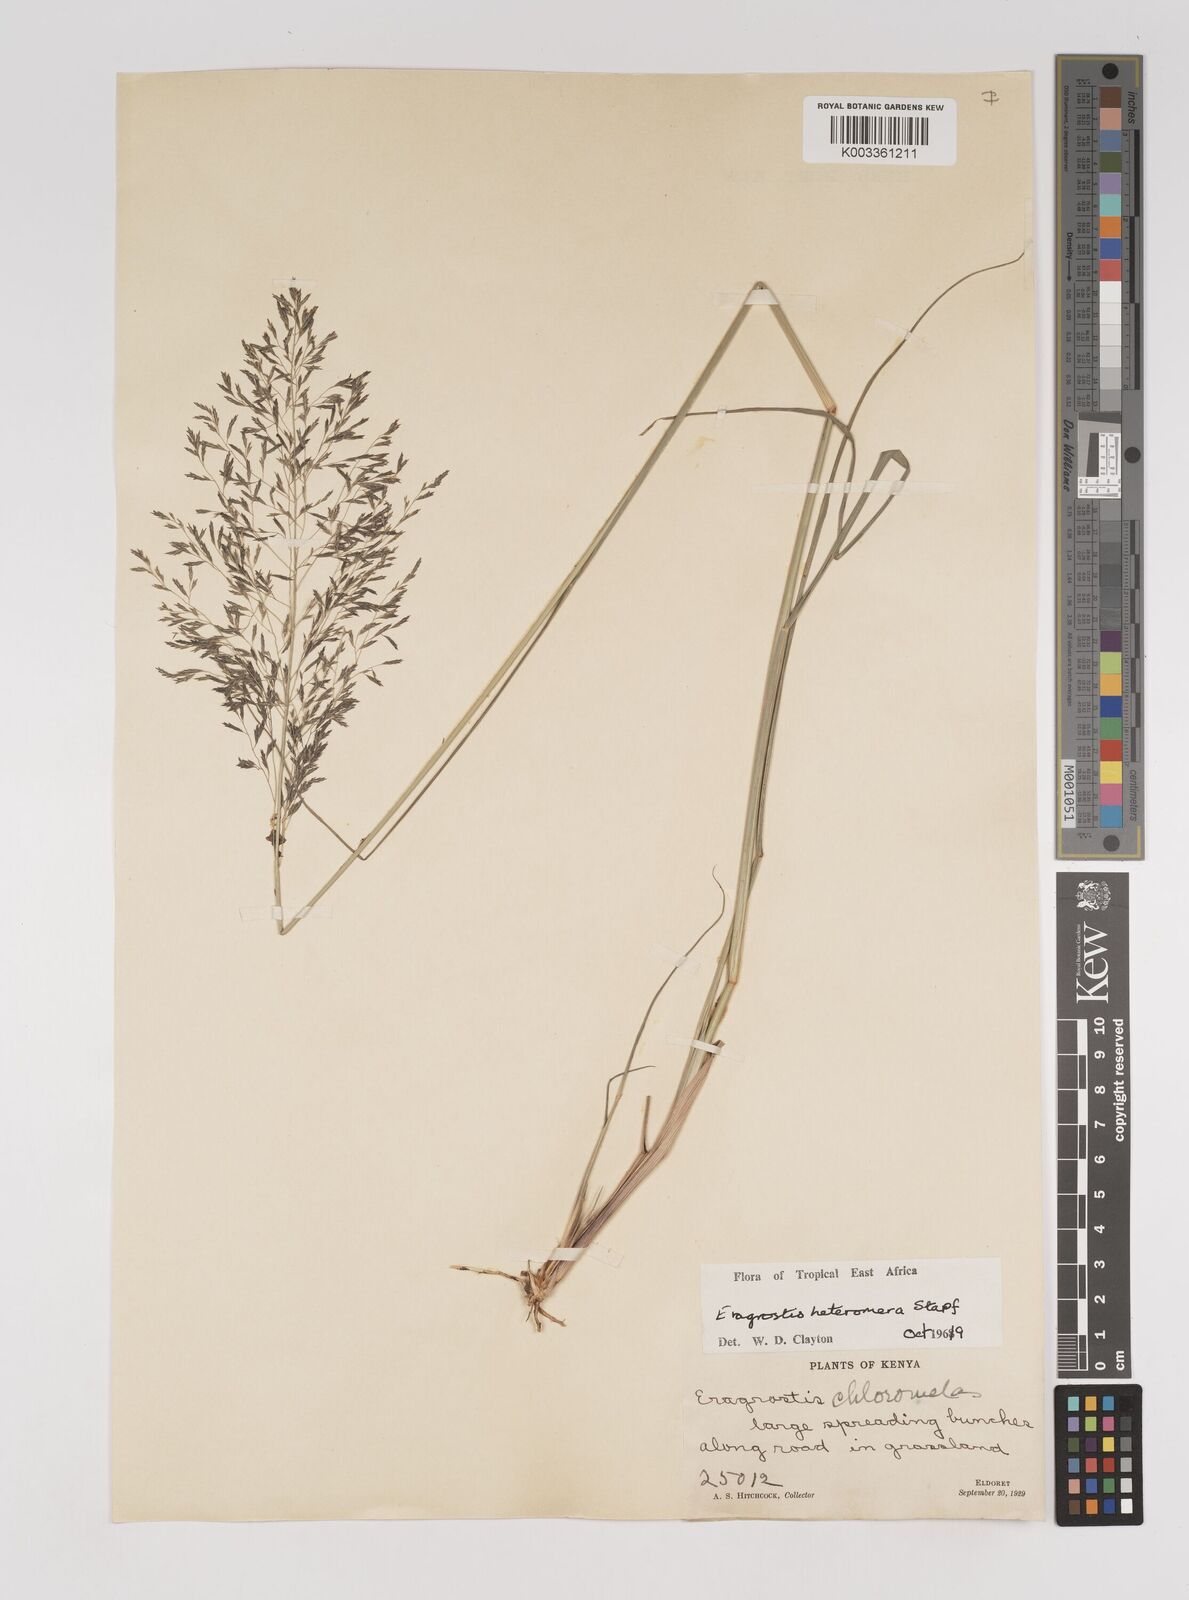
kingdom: Plantae
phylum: Tracheophyta
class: Liliopsida
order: Poales
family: Poaceae
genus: Eragrostis
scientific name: Eragrostis heteromera
